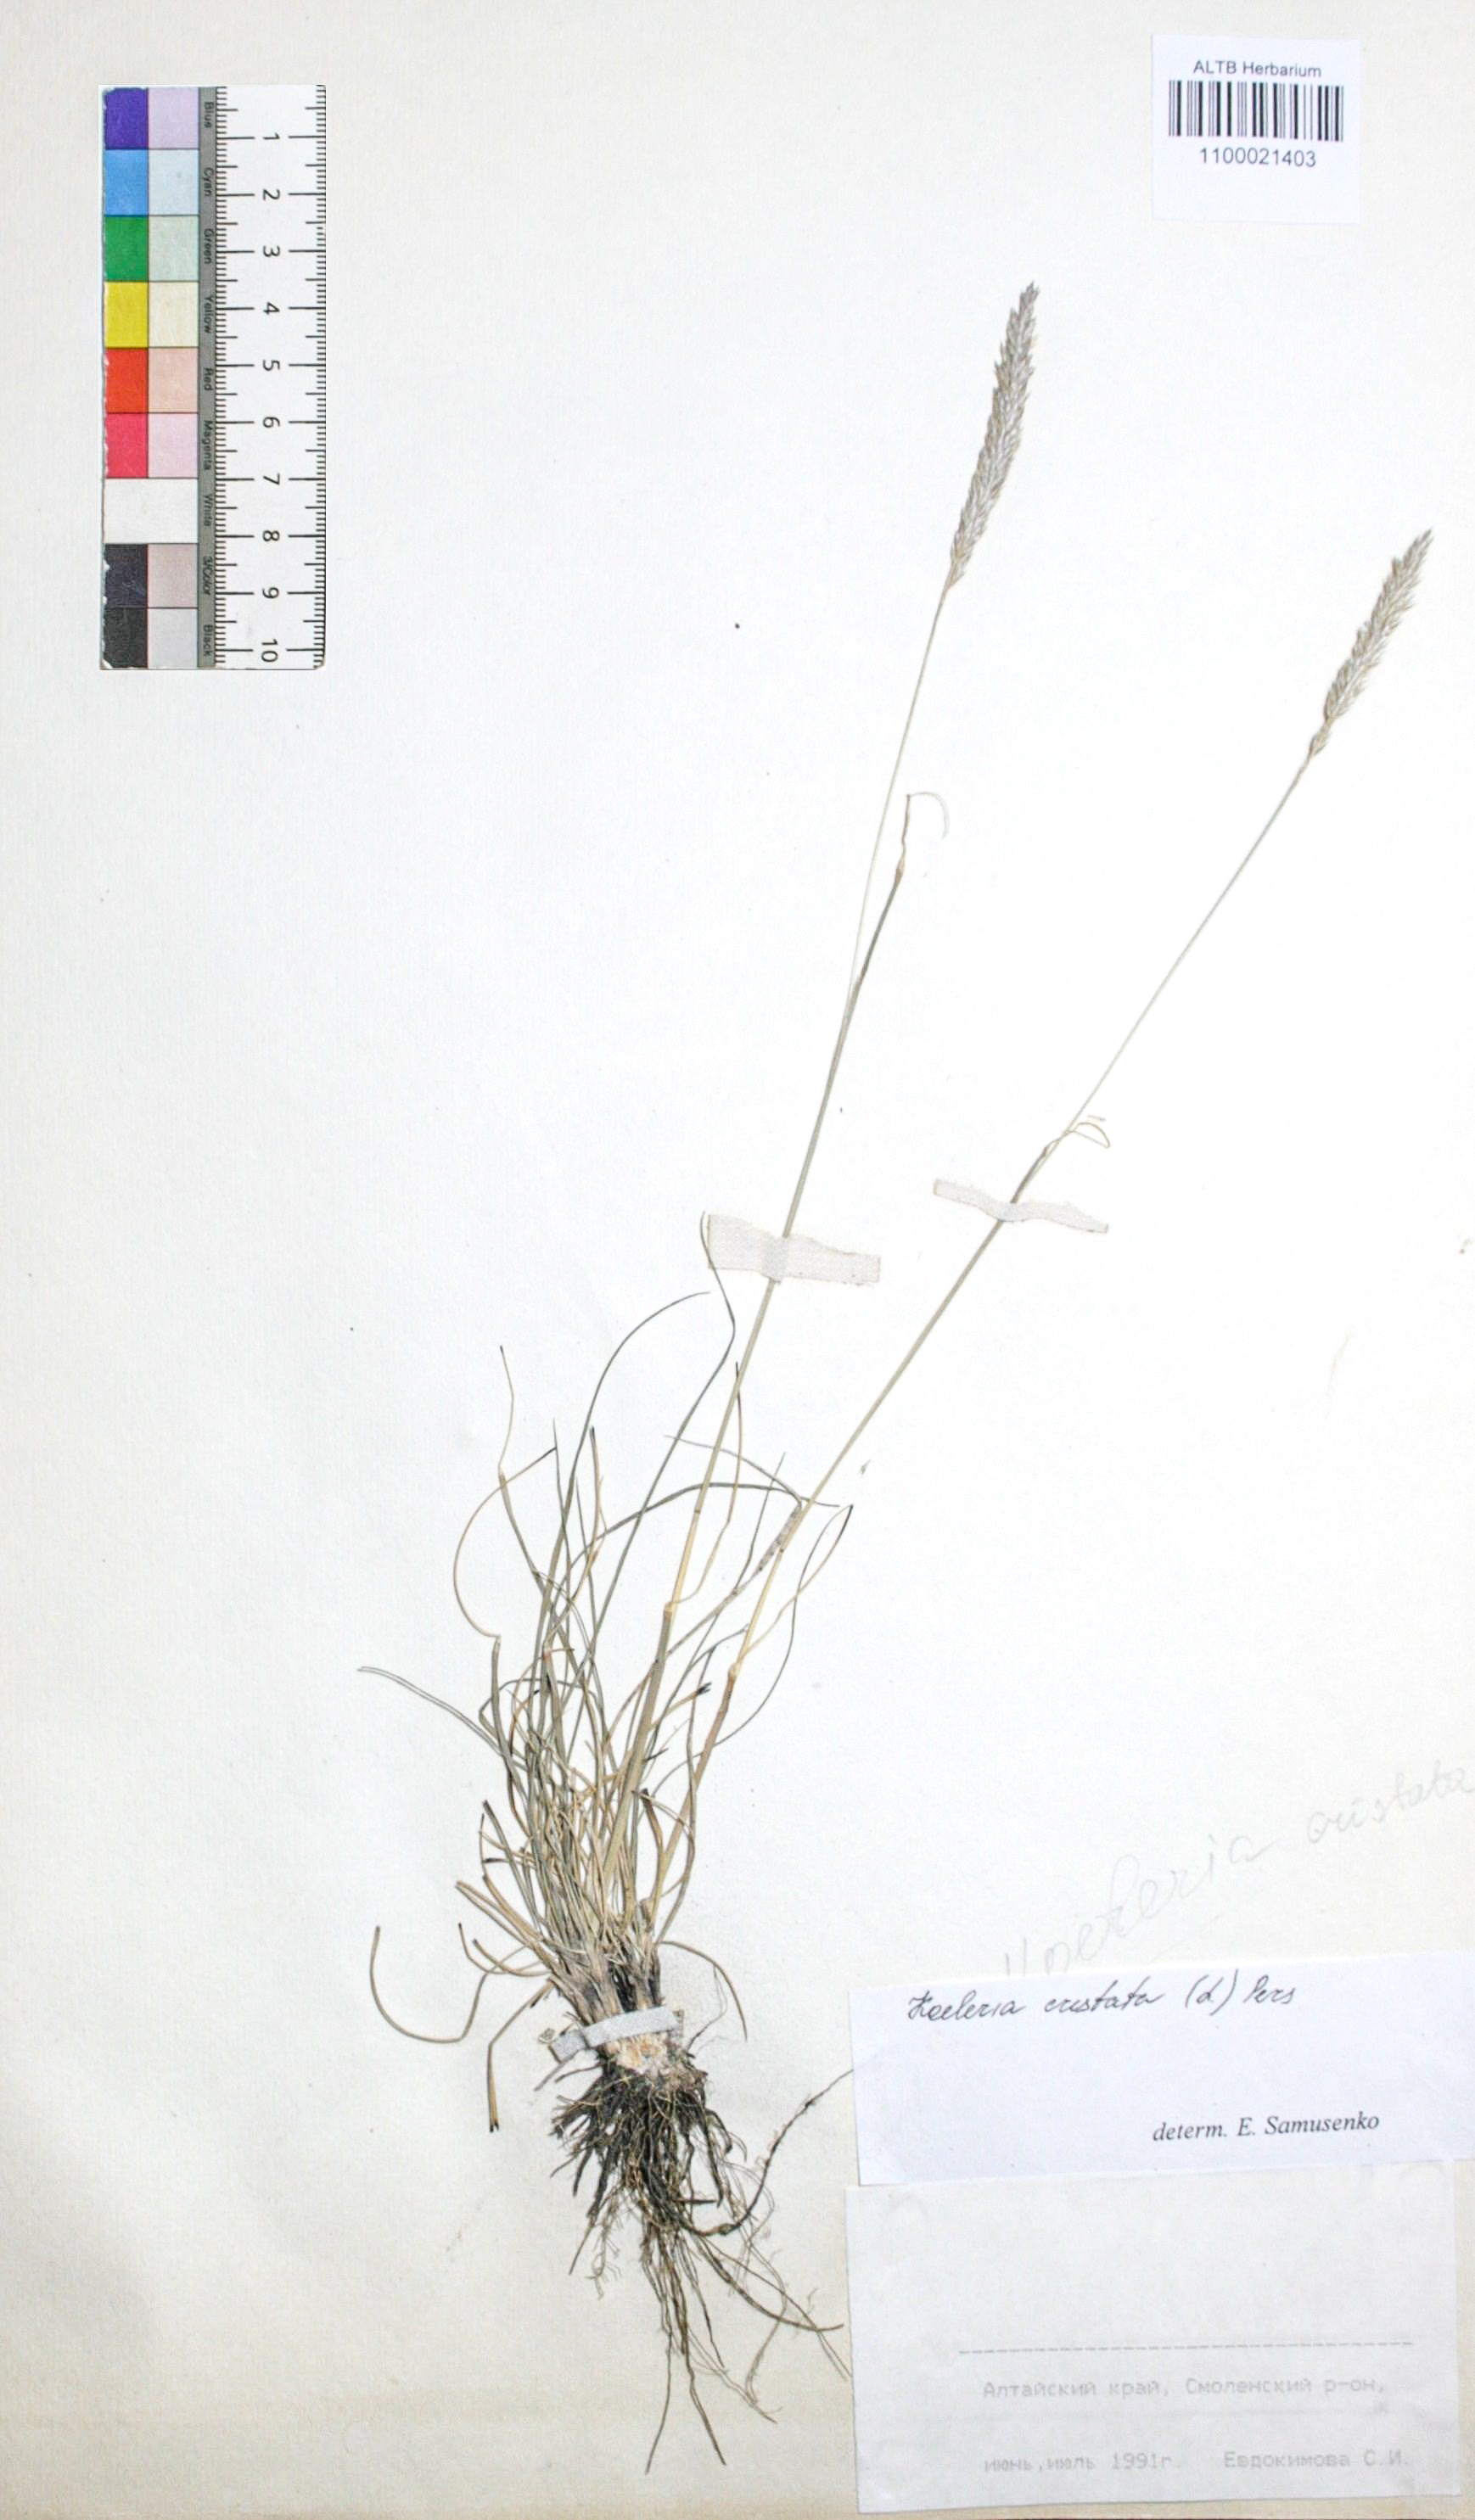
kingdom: Plantae
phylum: Tracheophyta
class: Liliopsida
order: Poales
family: Poaceae
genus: Koeleria
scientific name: Koeleria pyramidata
